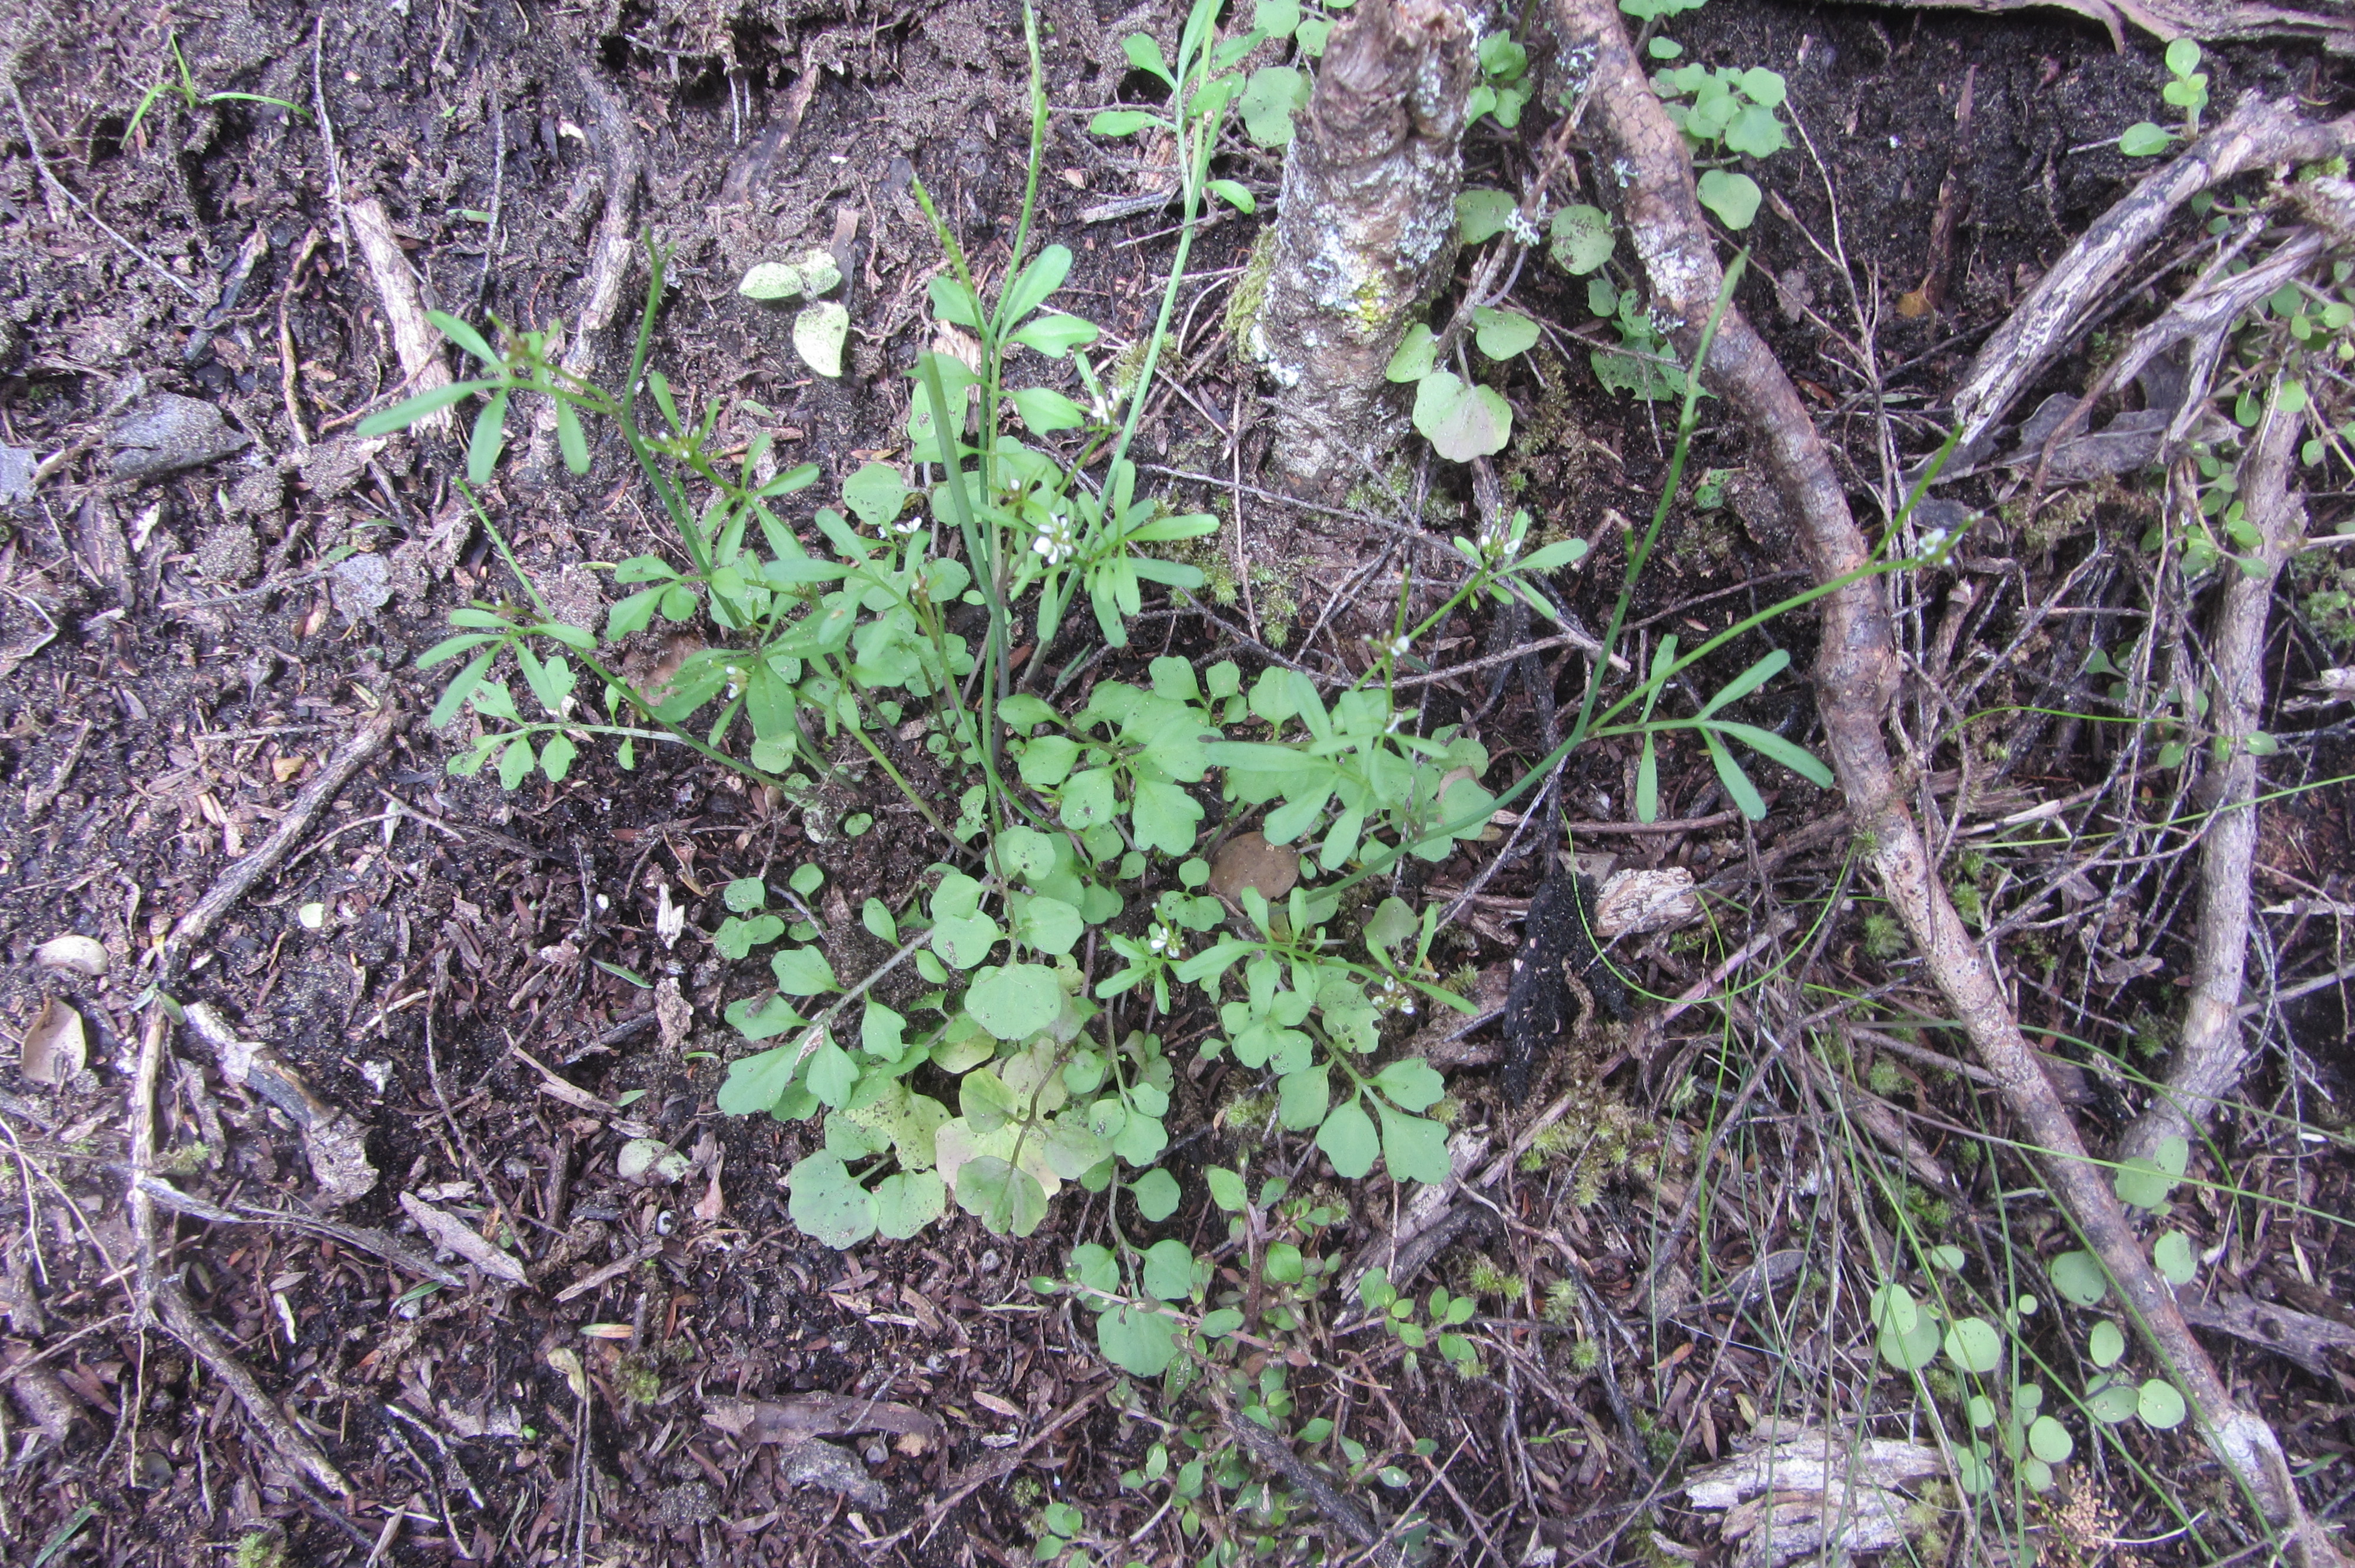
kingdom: Plantae
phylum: Tracheophyta
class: Magnoliopsida
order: Brassicales
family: Brassicaceae
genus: Cardamine
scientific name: Cardamine debilis
